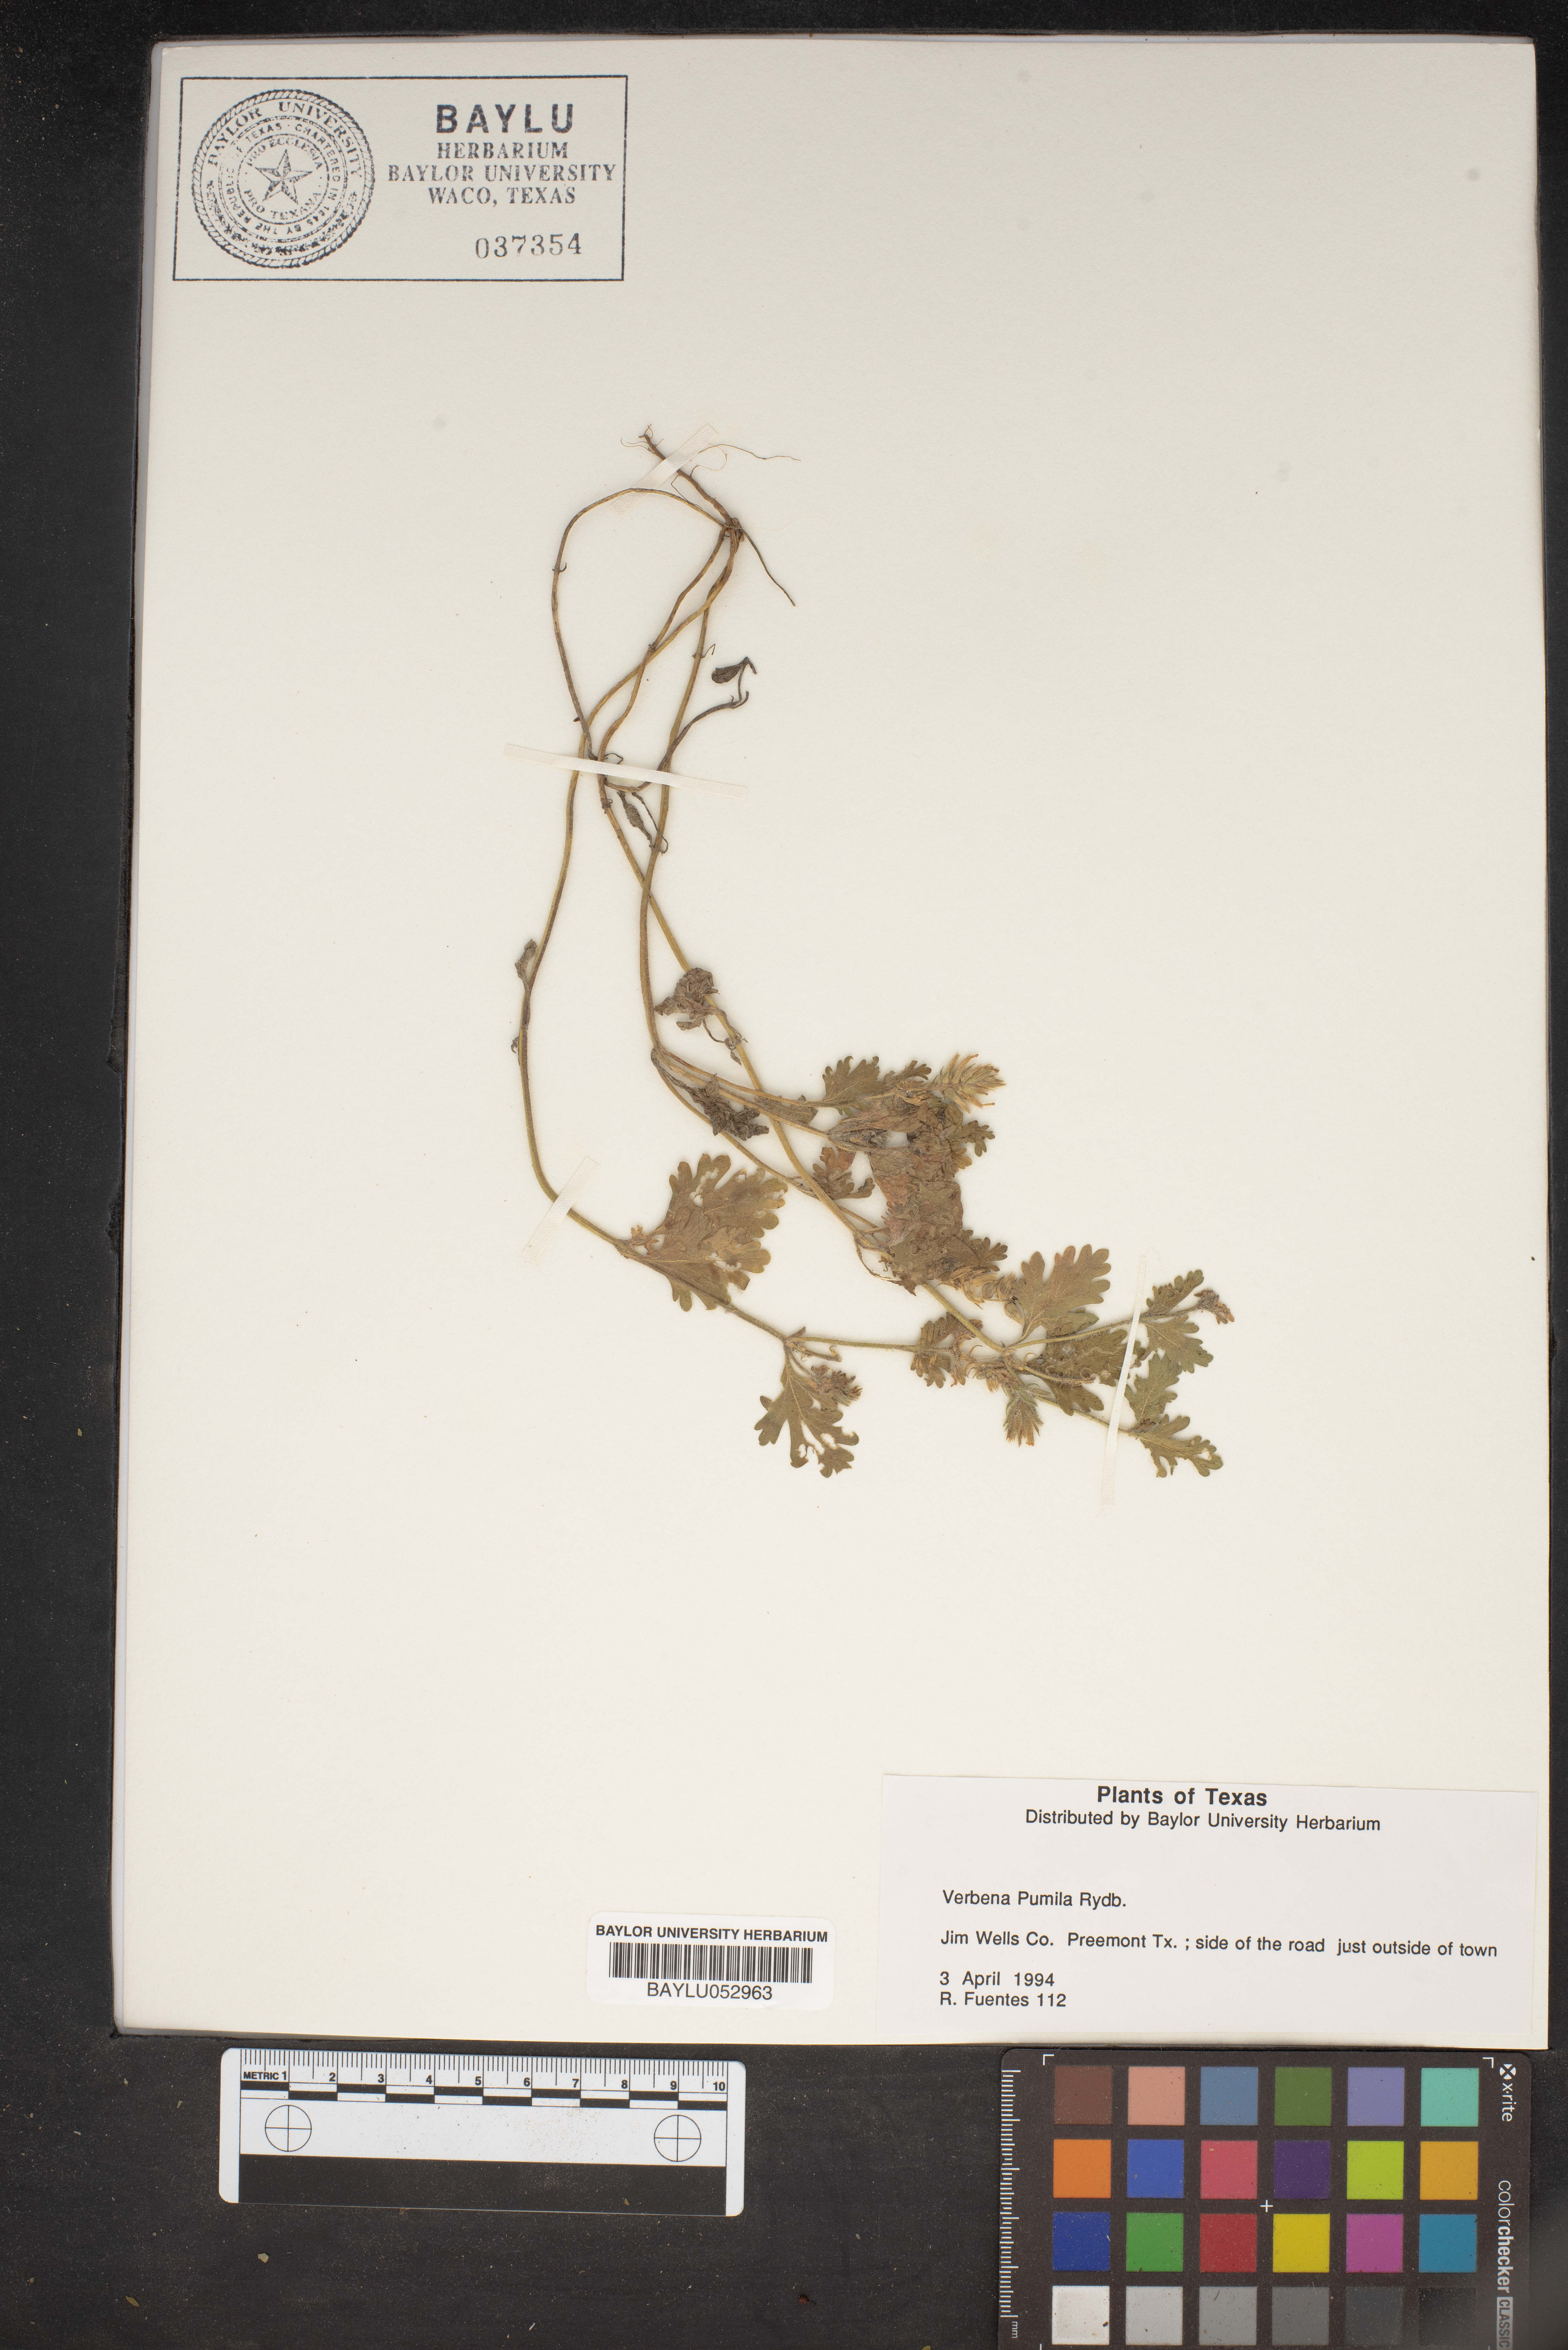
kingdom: Plantae
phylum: Tracheophyta
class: Magnoliopsida
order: Lamiales
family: Verbenaceae
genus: Verbena
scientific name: Verbena pumila
